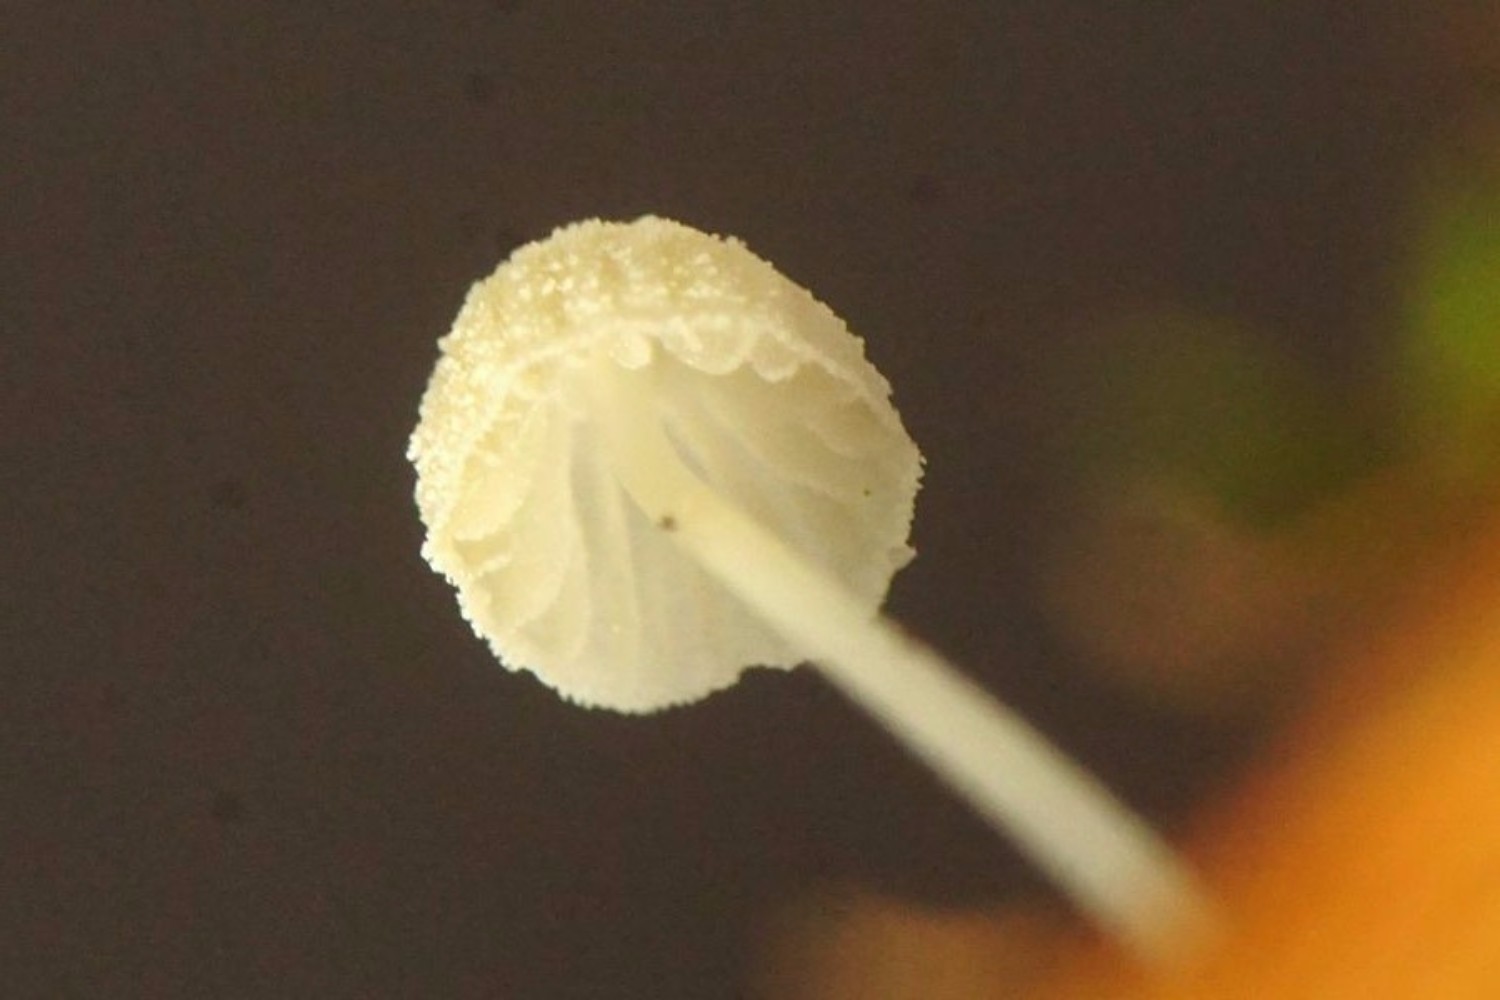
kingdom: Fungi
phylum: Basidiomycota
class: Agaricomycetes
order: Agaricales
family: Mycenaceae
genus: Mycena
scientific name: Mycena tenerrima
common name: pudret huesvamp
